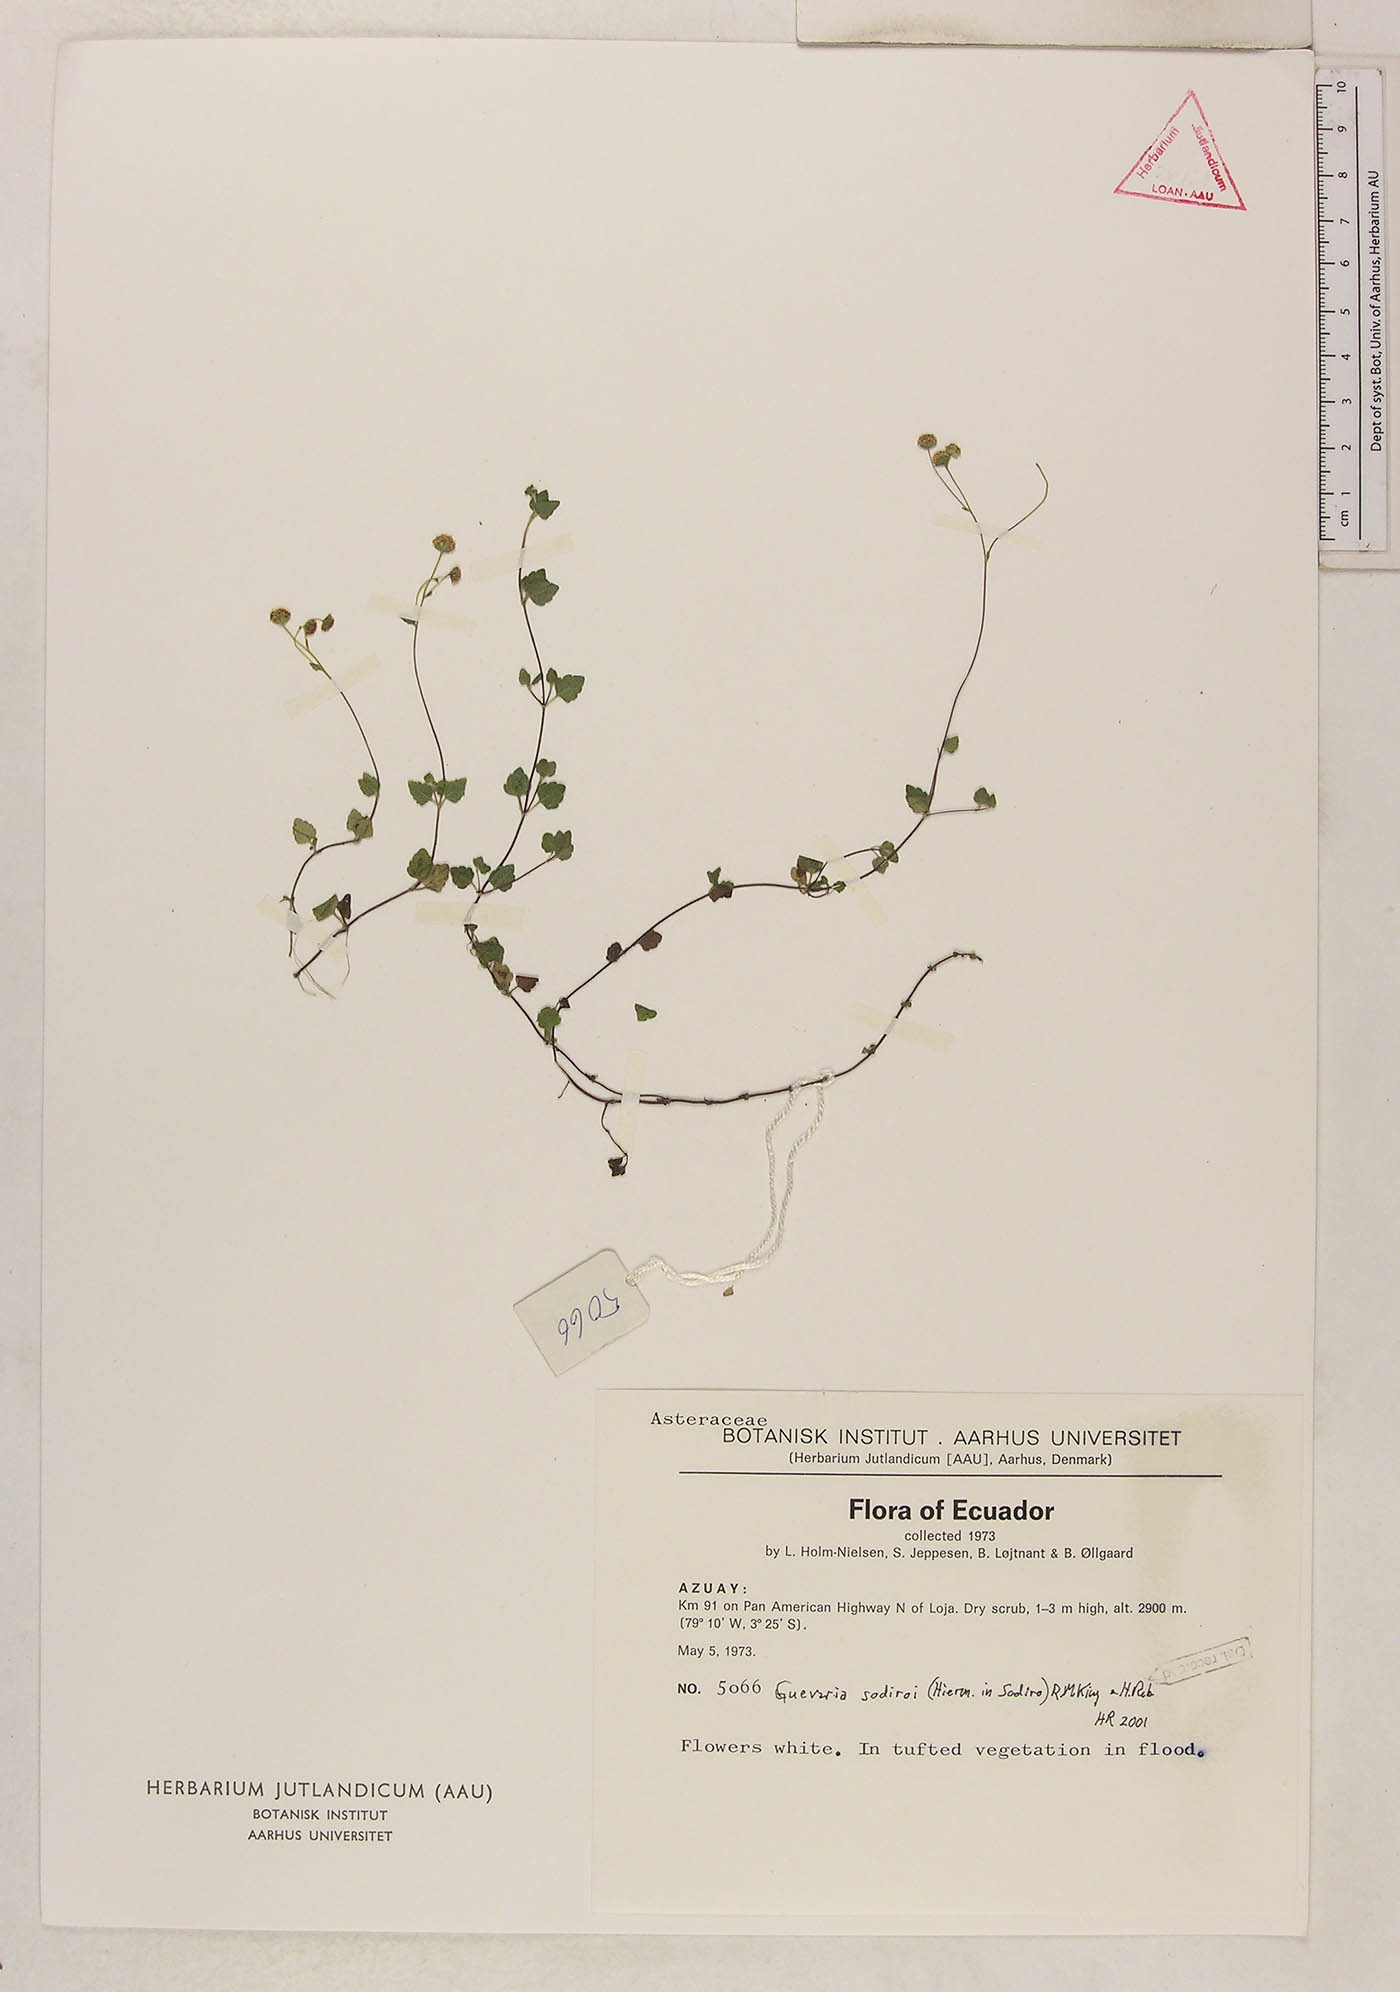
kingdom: Plantae
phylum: Tracheophyta
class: Magnoliopsida
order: Asterales
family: Asteraceae
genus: Guevaria
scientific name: Guevaria sodiroi
